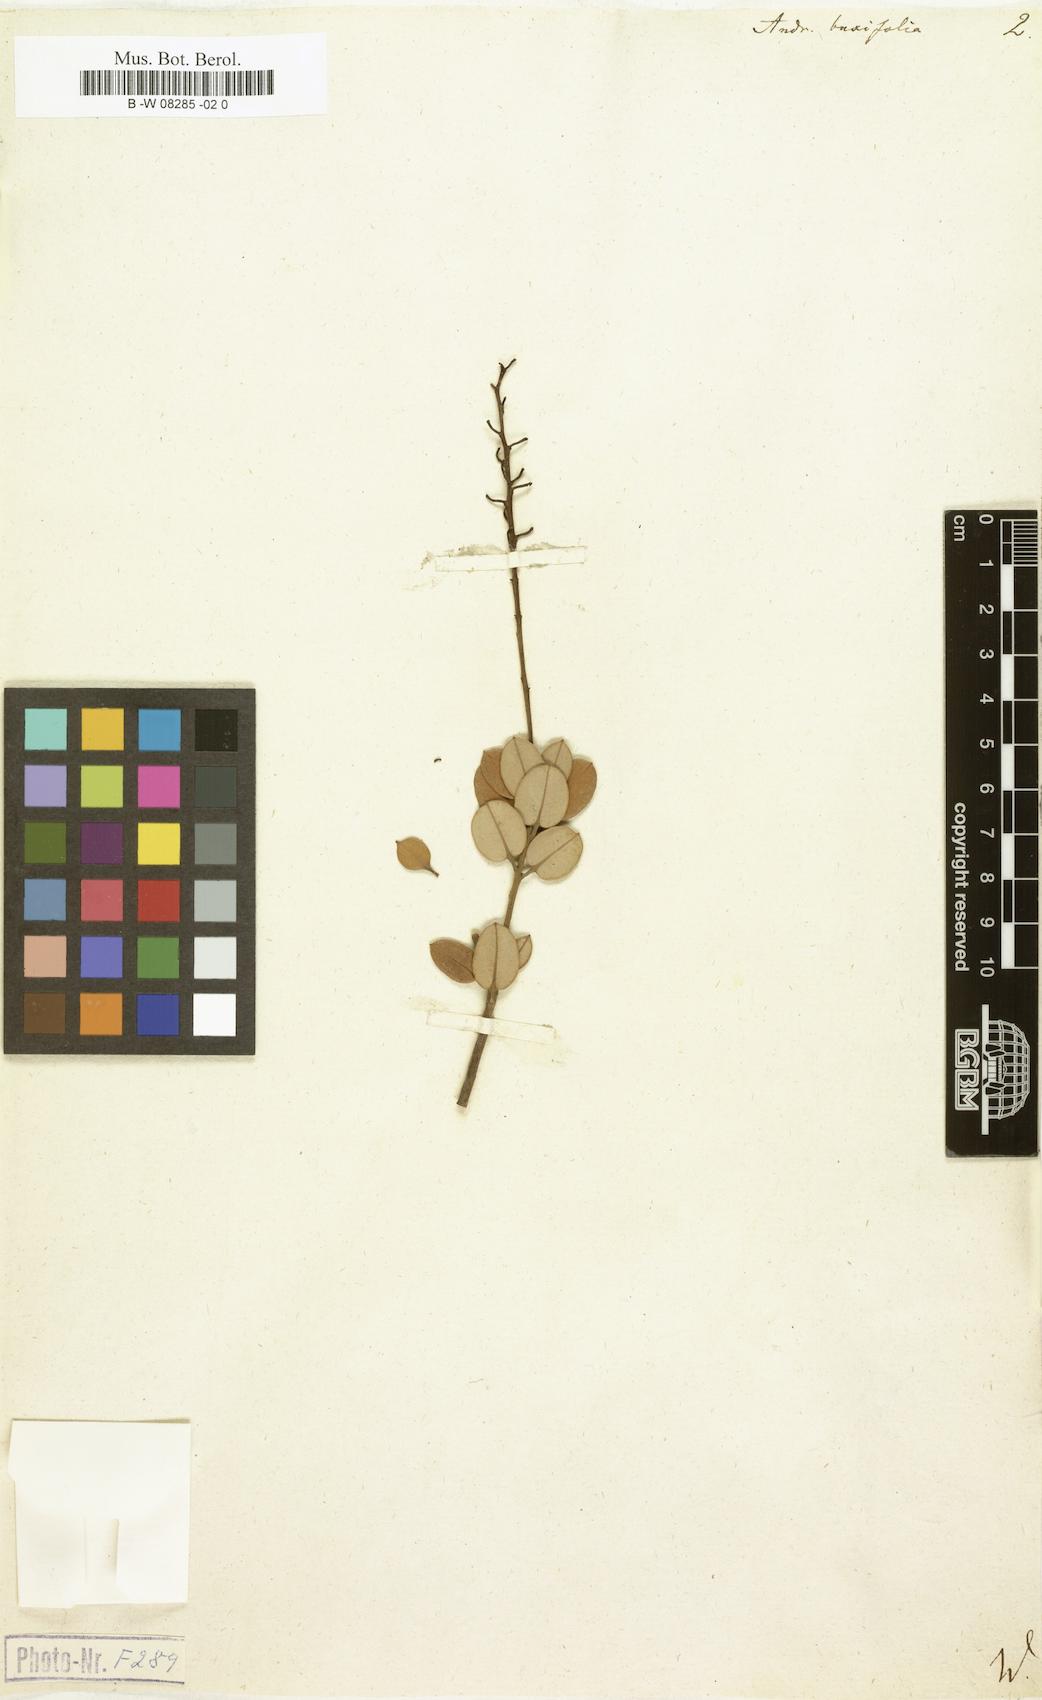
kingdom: Plantae
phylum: Tracheophyta
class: Magnoliopsida
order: Ericales
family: Ericaceae
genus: Agarista
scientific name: Agarista buxifolia
